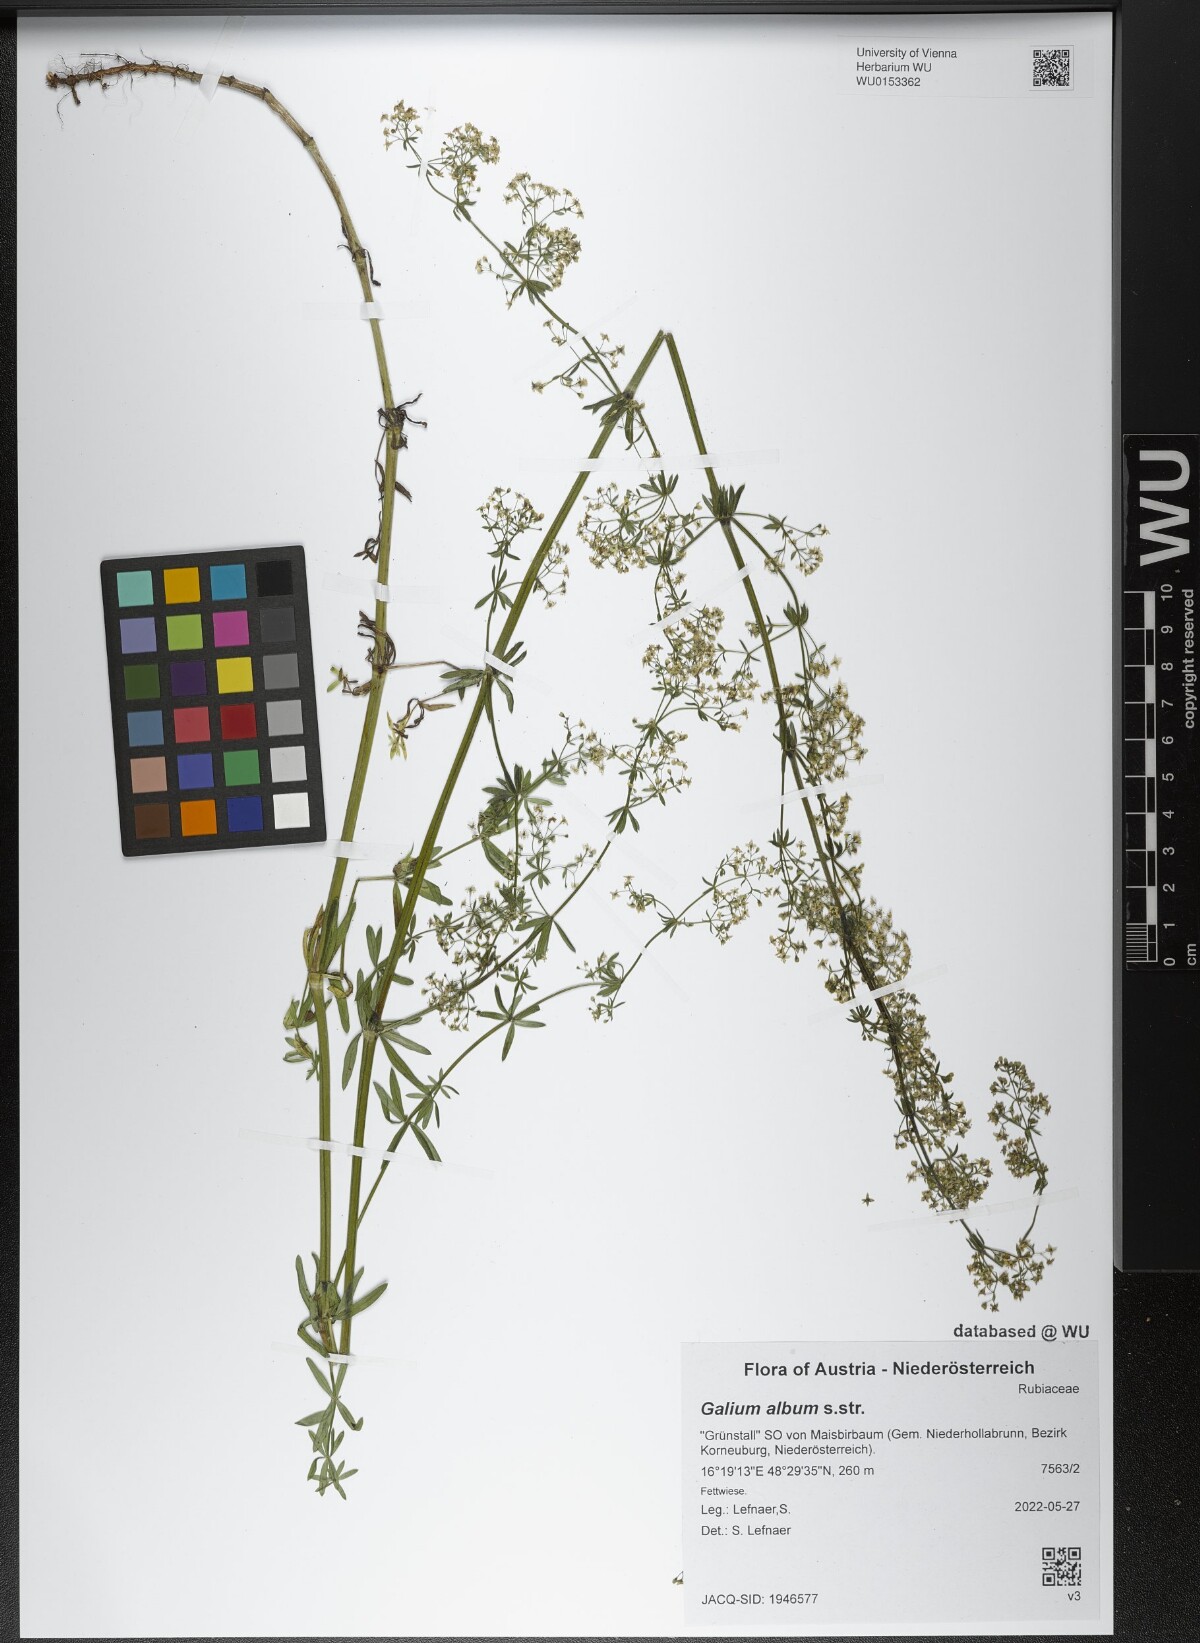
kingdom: Plantae
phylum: Tracheophyta
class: Magnoliopsida
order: Gentianales
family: Rubiaceae
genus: Galium
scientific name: Galium album
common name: White bedstraw
